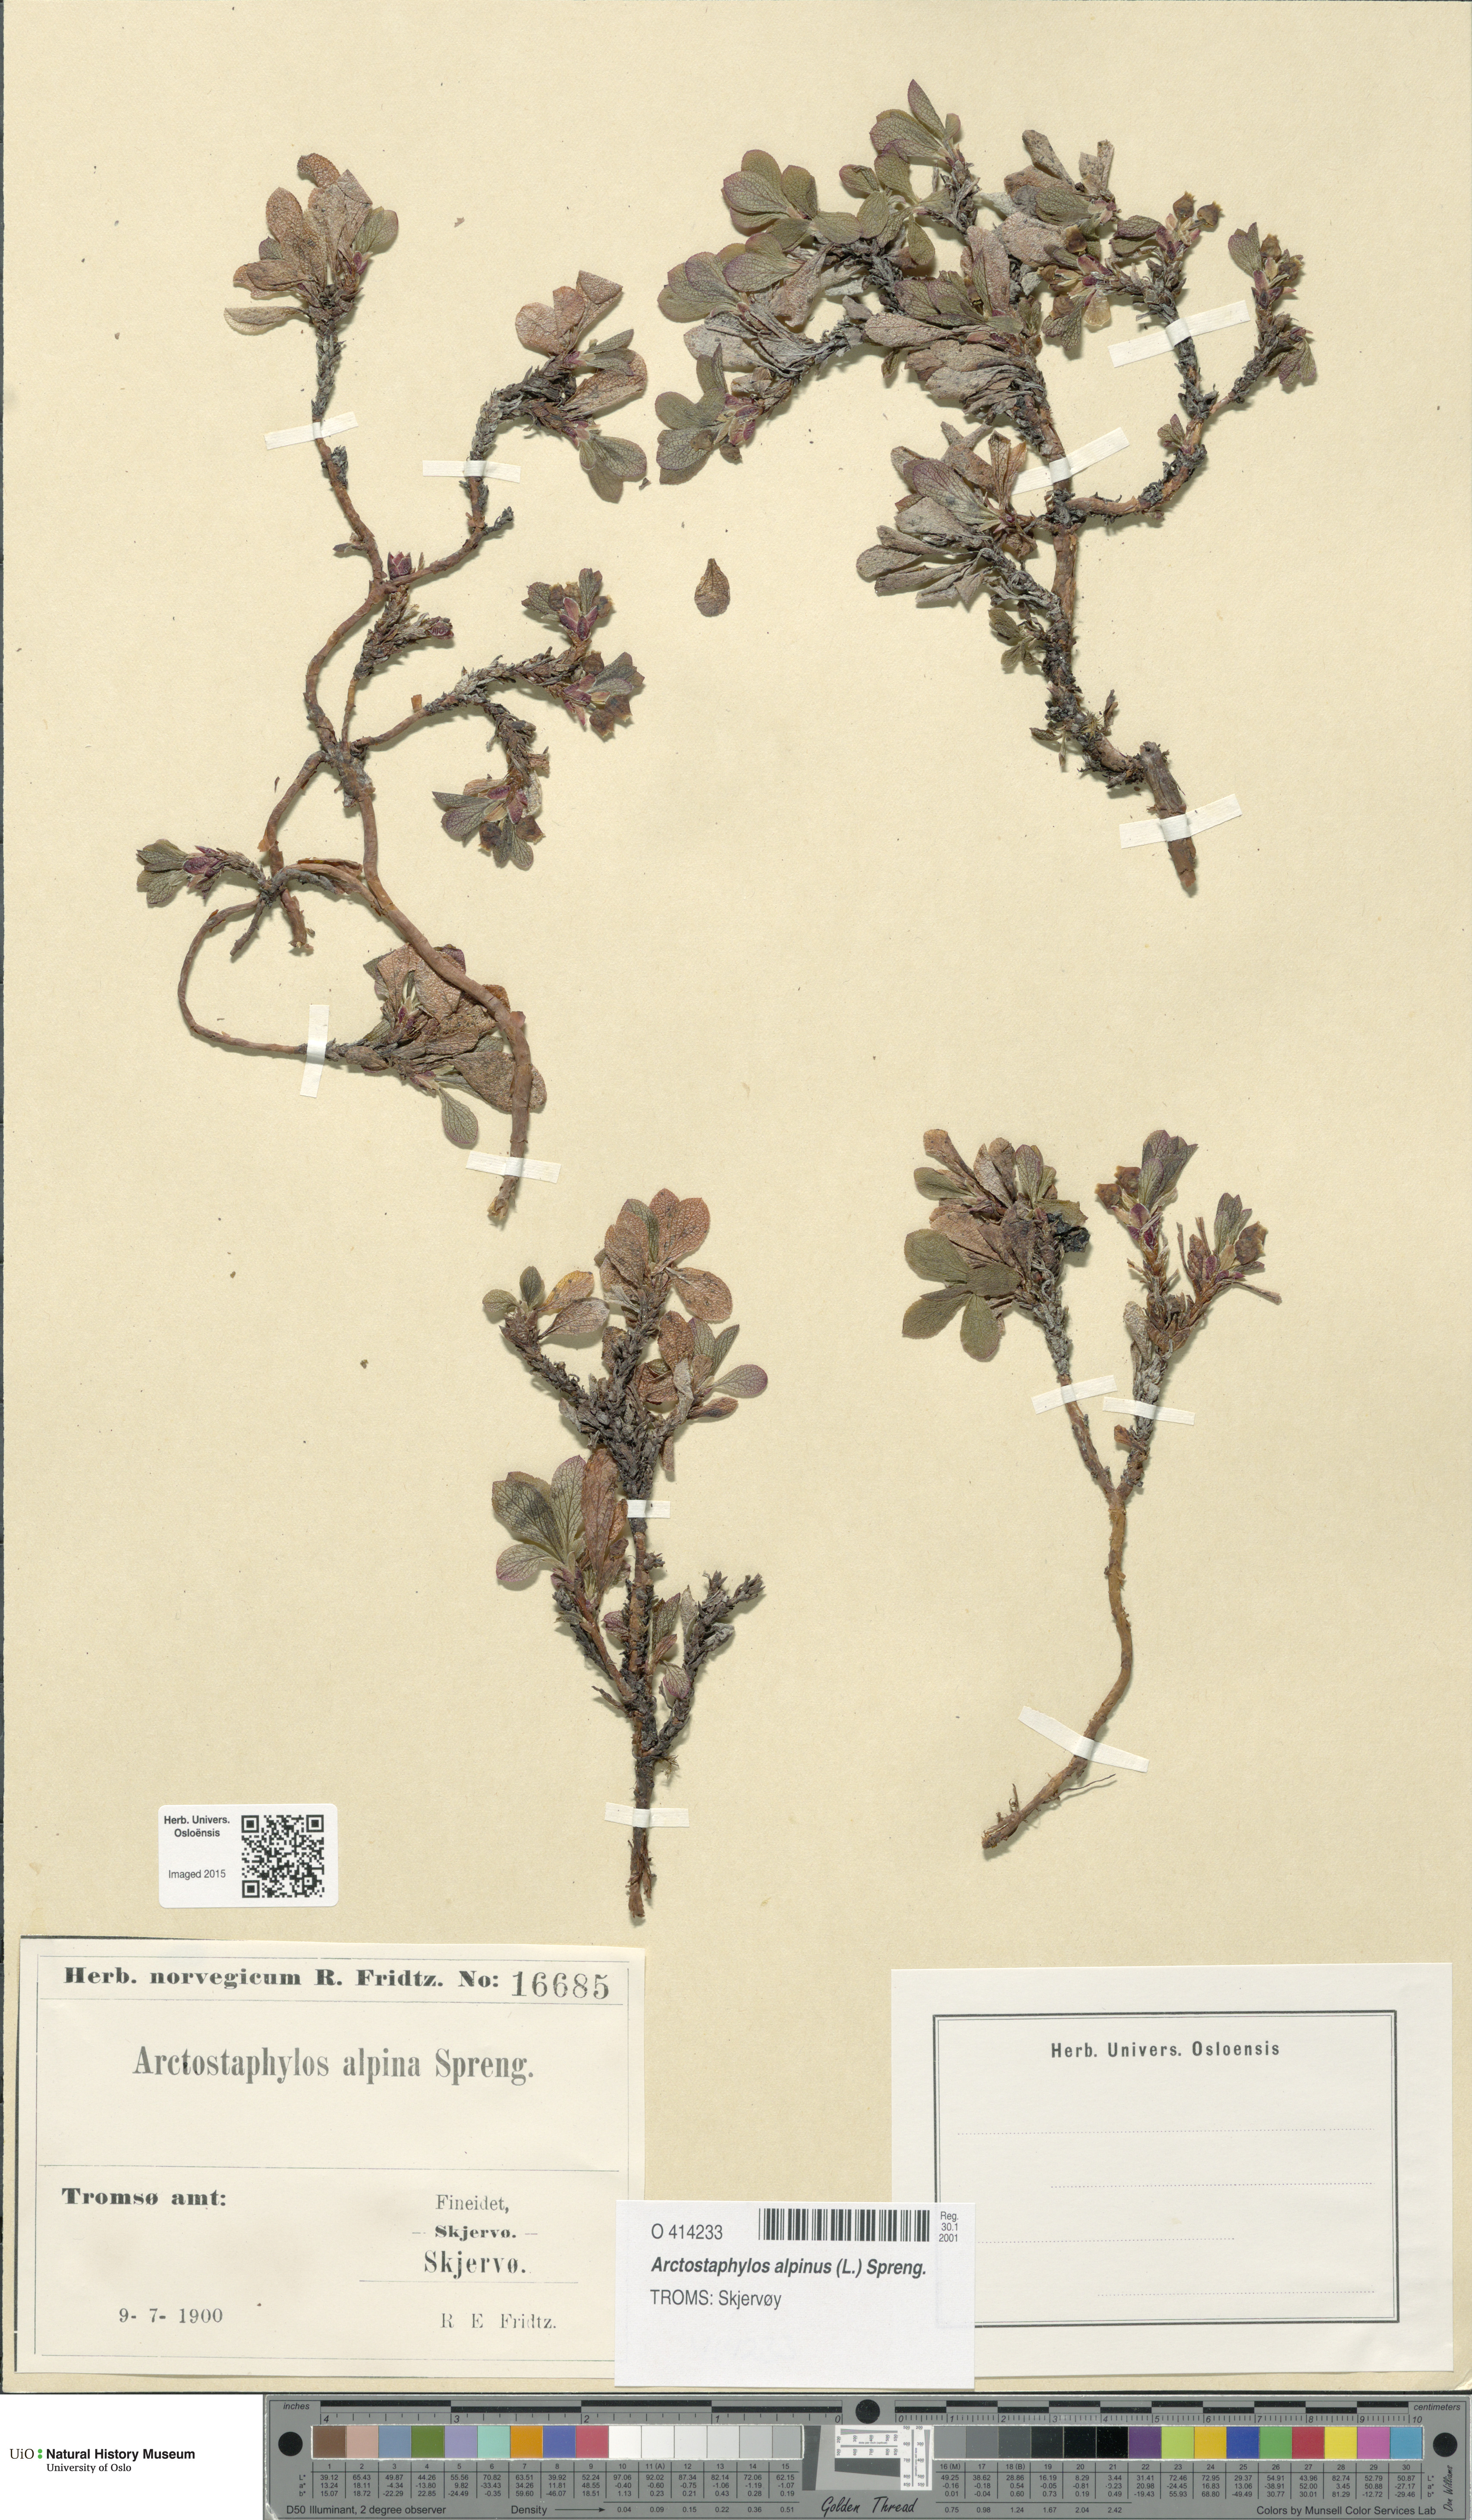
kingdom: Plantae
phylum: Tracheophyta
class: Magnoliopsida
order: Ericales
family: Ericaceae
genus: Arctostaphylos
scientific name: Arctostaphylos alpinus
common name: Alpine bearberry
